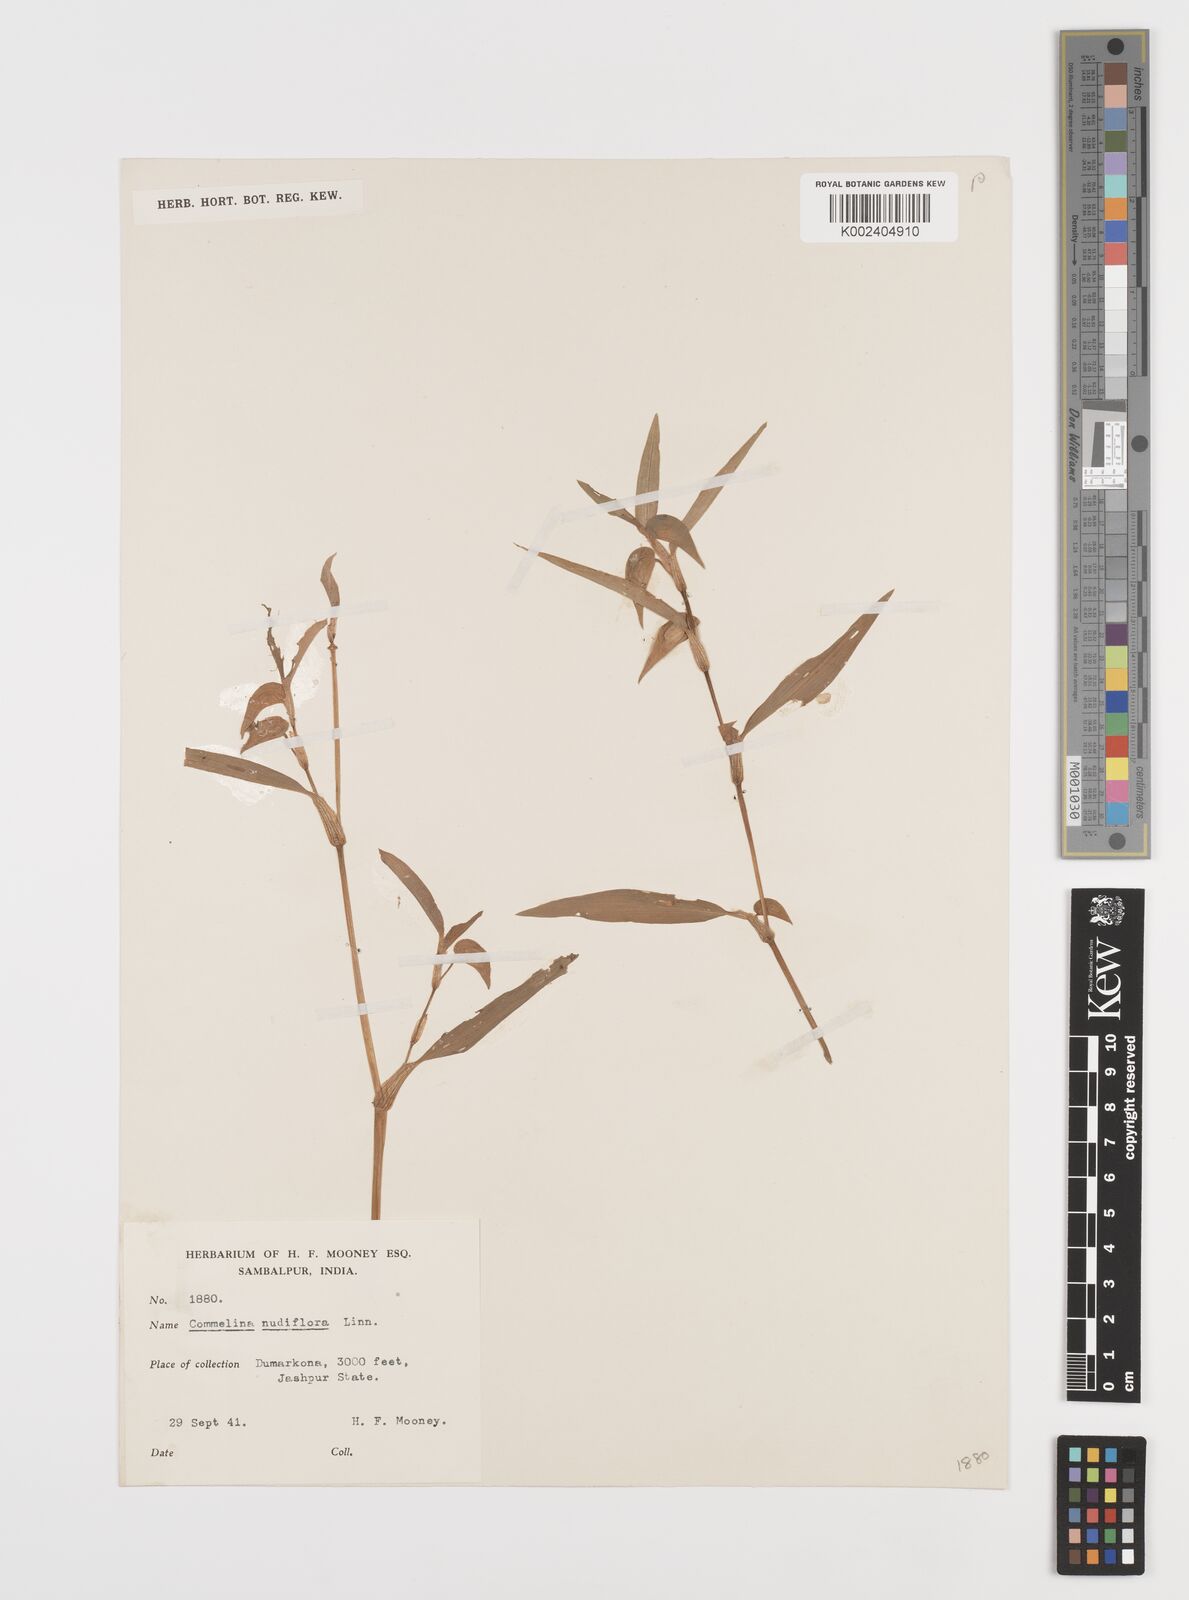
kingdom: Plantae
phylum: Tracheophyta
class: Liliopsida
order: Commelinales
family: Commelinaceae
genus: Commelina
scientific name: Commelina diffusa
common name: Climbing dayflower
